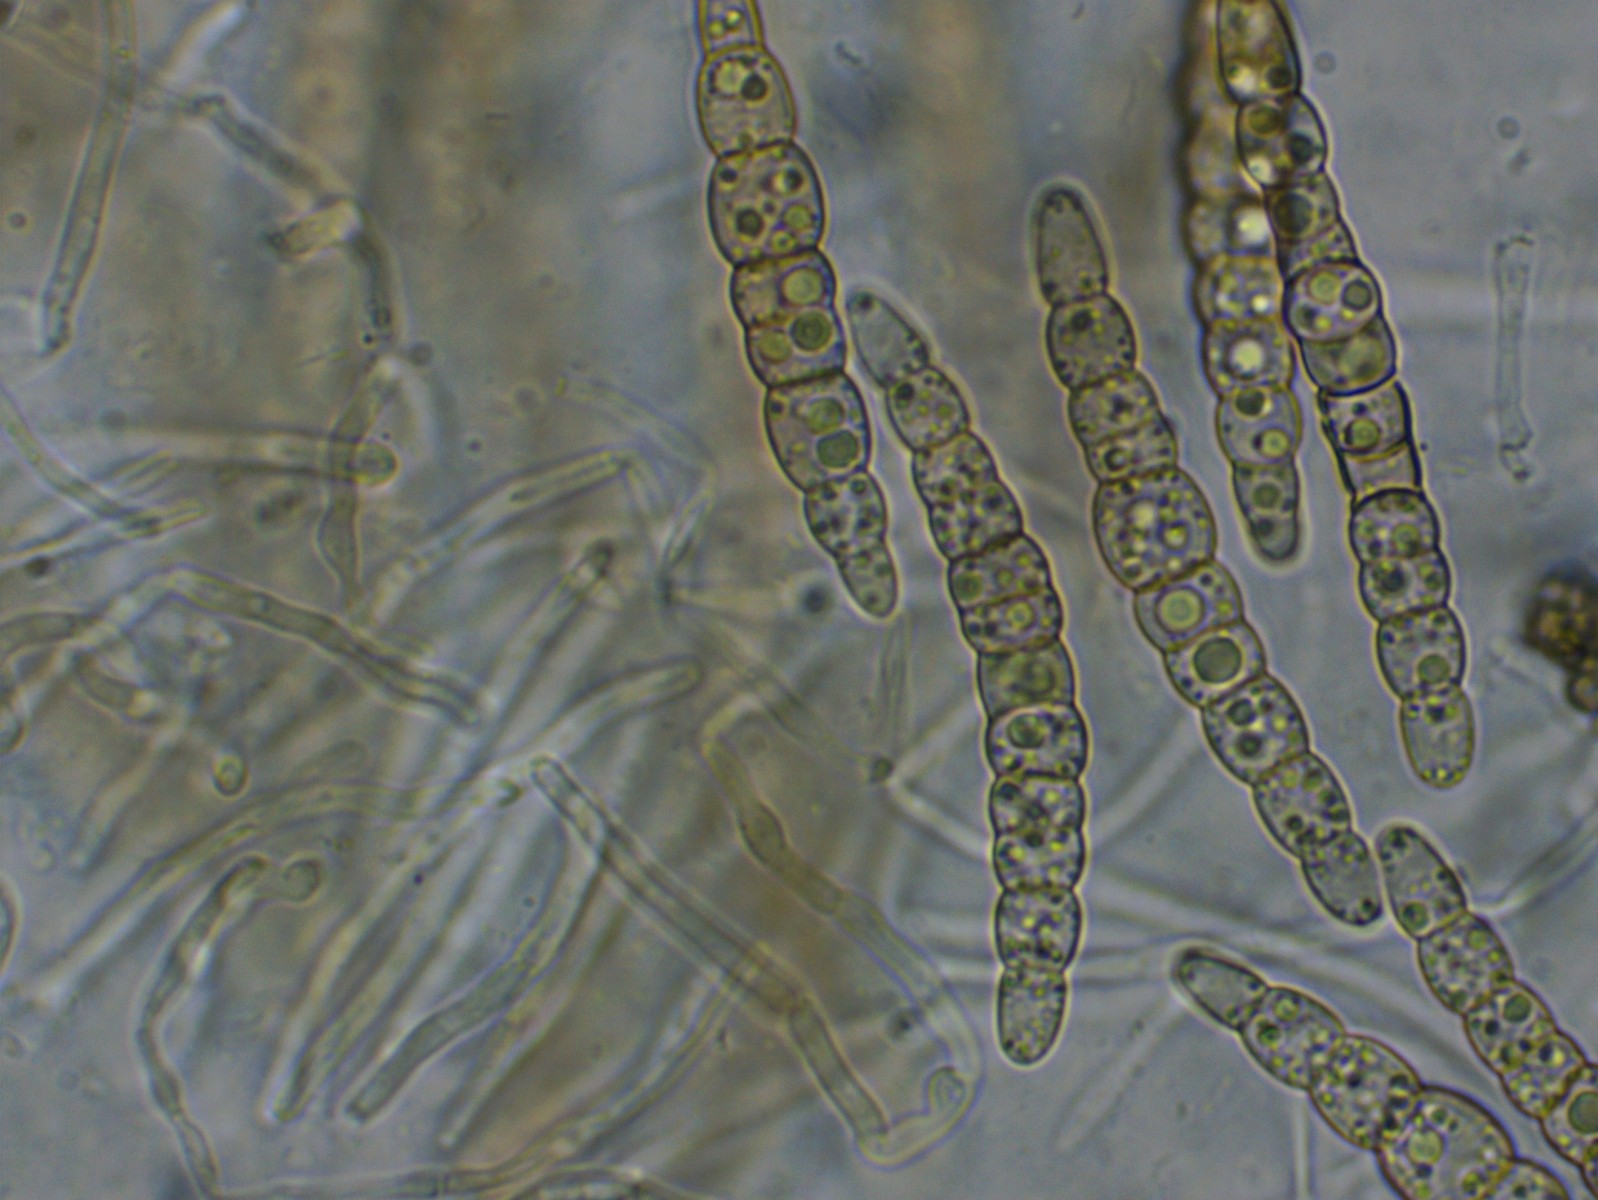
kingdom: Fungi
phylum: Ascomycota
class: Dothideomycetes
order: Pleosporales
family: Leptosphaeriaceae
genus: Leptosphaeria
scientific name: Leptosphaeria acuta
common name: spids kulkegle
